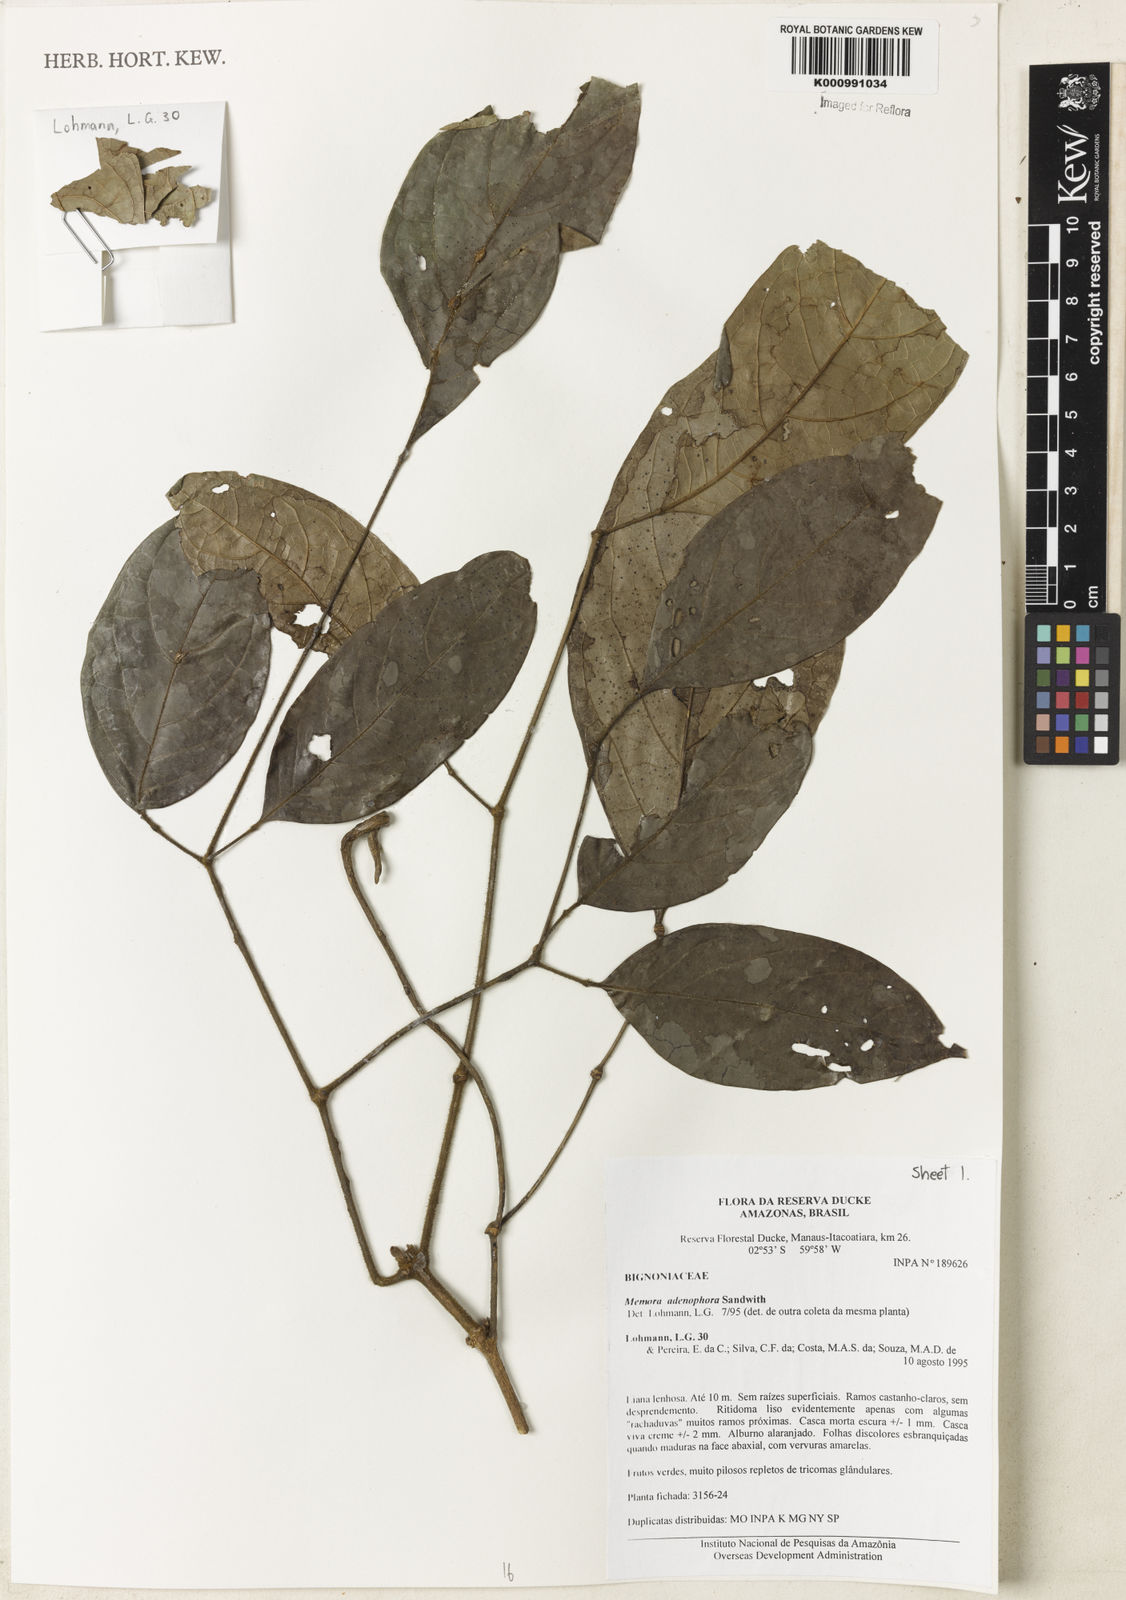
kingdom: Plantae
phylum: Tracheophyta
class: Magnoliopsida
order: Lamiales
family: Bignoniaceae
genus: Adenocalymma
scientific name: Adenocalymma adenophorum
